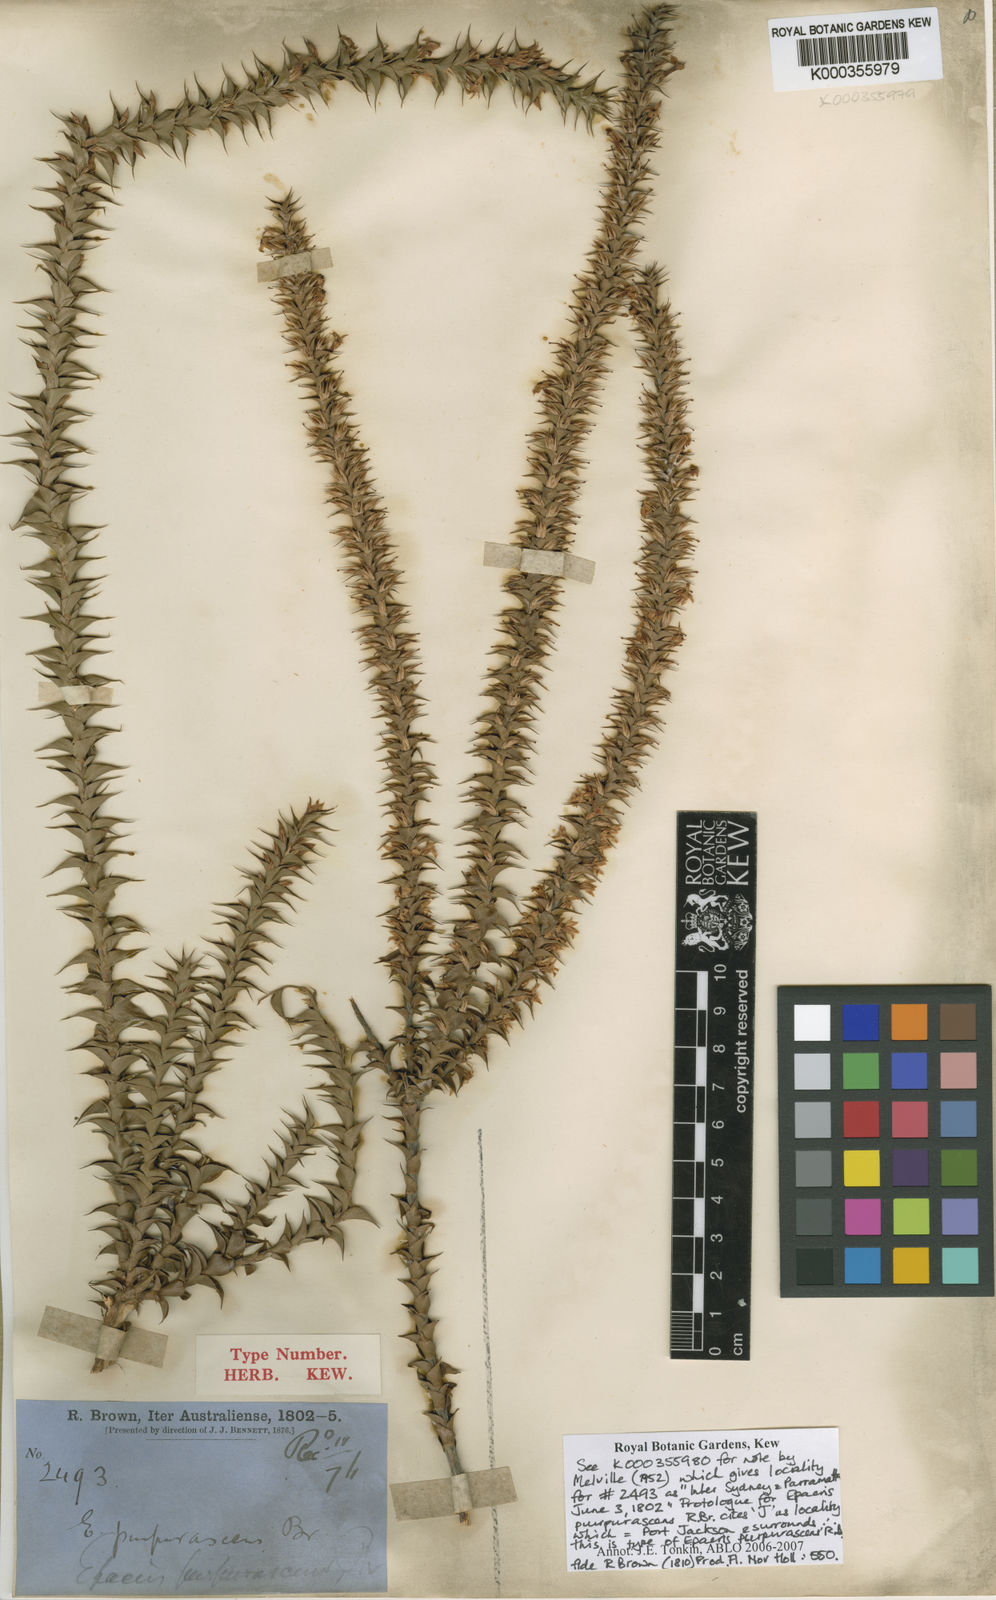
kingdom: Plantae
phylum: Tracheophyta
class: Magnoliopsida
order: Ericales
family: Ericaceae
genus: Epacris
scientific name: Epacris
